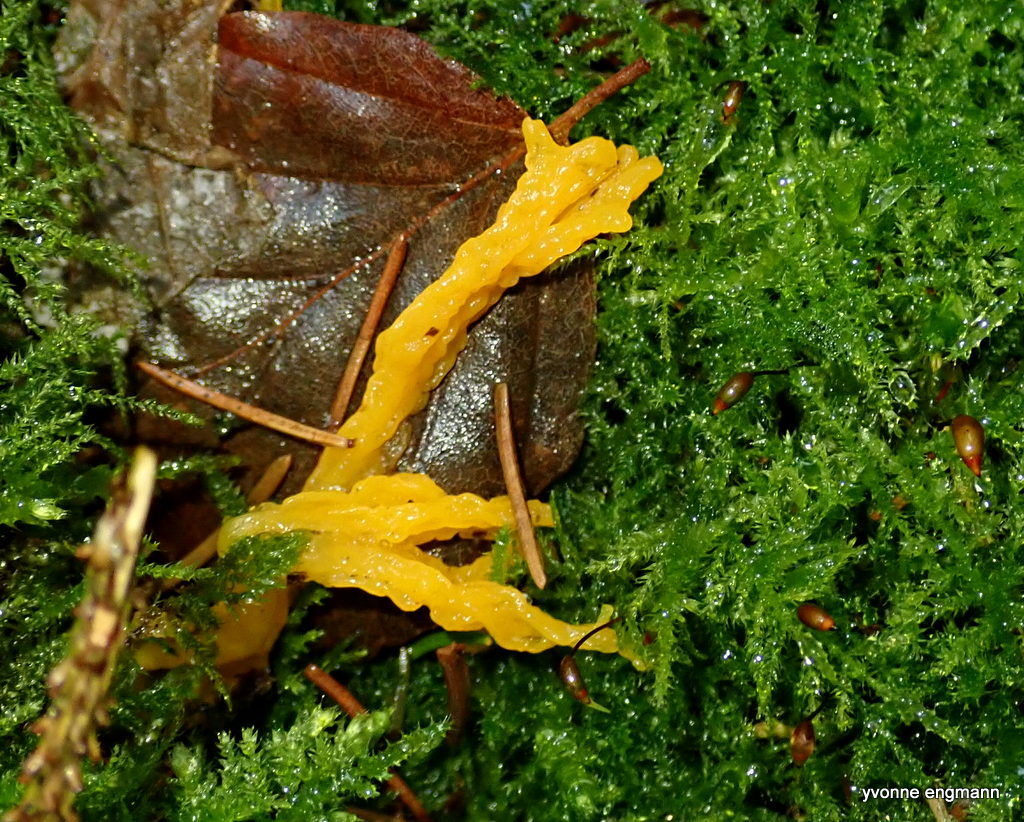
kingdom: Fungi
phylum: Basidiomycota
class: Dacrymycetes
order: Dacrymycetales
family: Dacrymycetaceae
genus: Calocera
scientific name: Calocera viscosa
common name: almindelig guldgaffel
